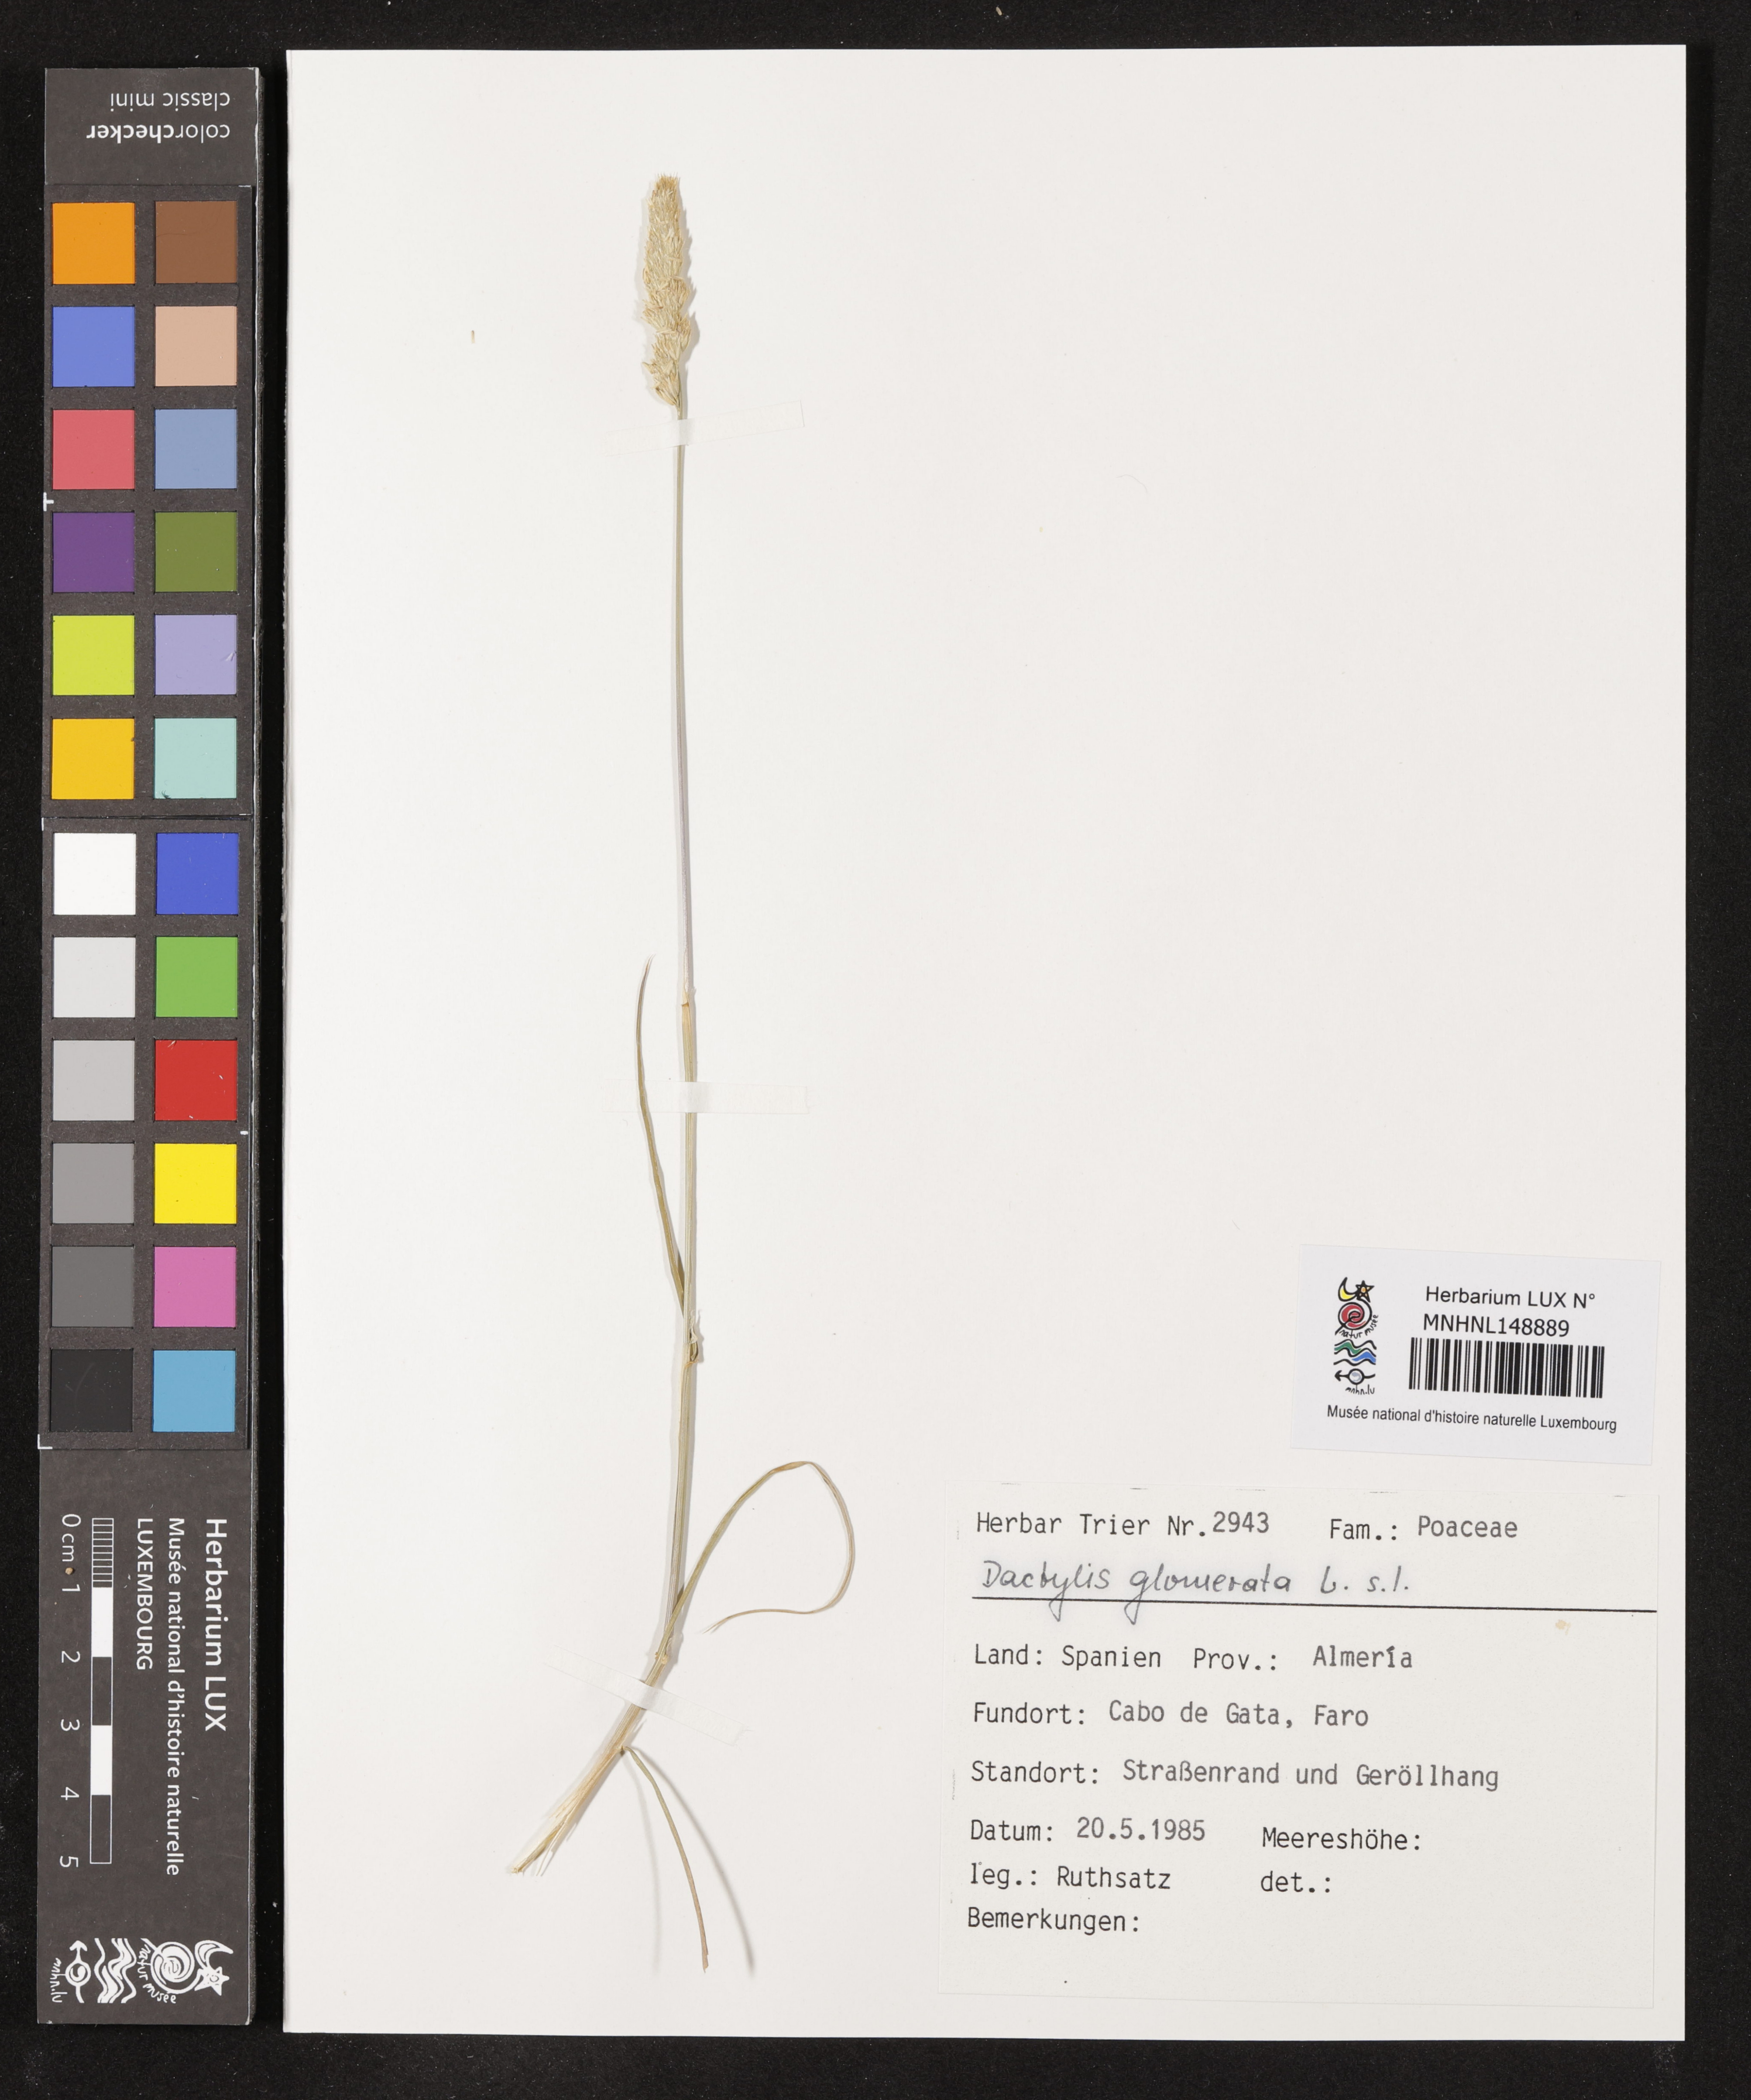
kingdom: Plantae
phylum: Tracheophyta
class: Liliopsida
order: Poales
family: Poaceae
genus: Dactylis
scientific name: Dactylis glomerata
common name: Orchardgrass
